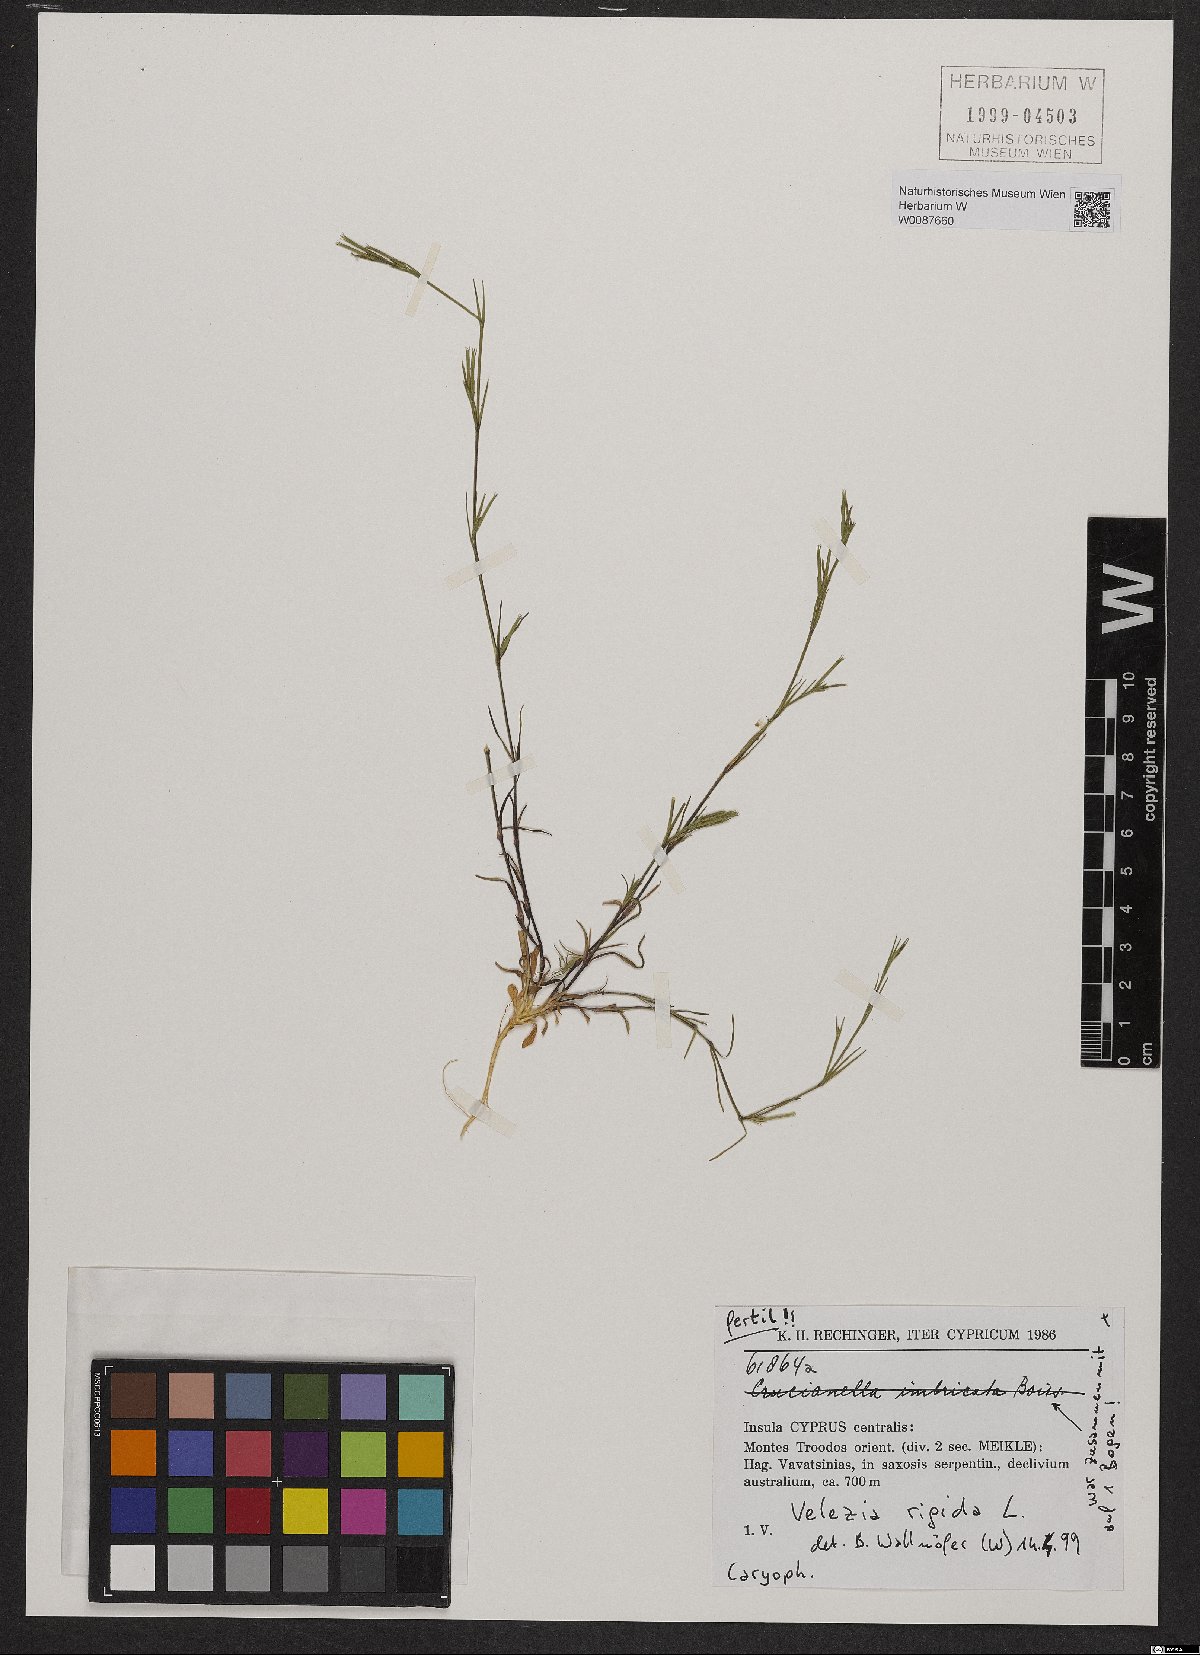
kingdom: Plantae
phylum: Tracheophyta
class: Magnoliopsida
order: Caryophyllales
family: Caryophyllaceae
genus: Dianthus
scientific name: Dianthus nudiflorus
